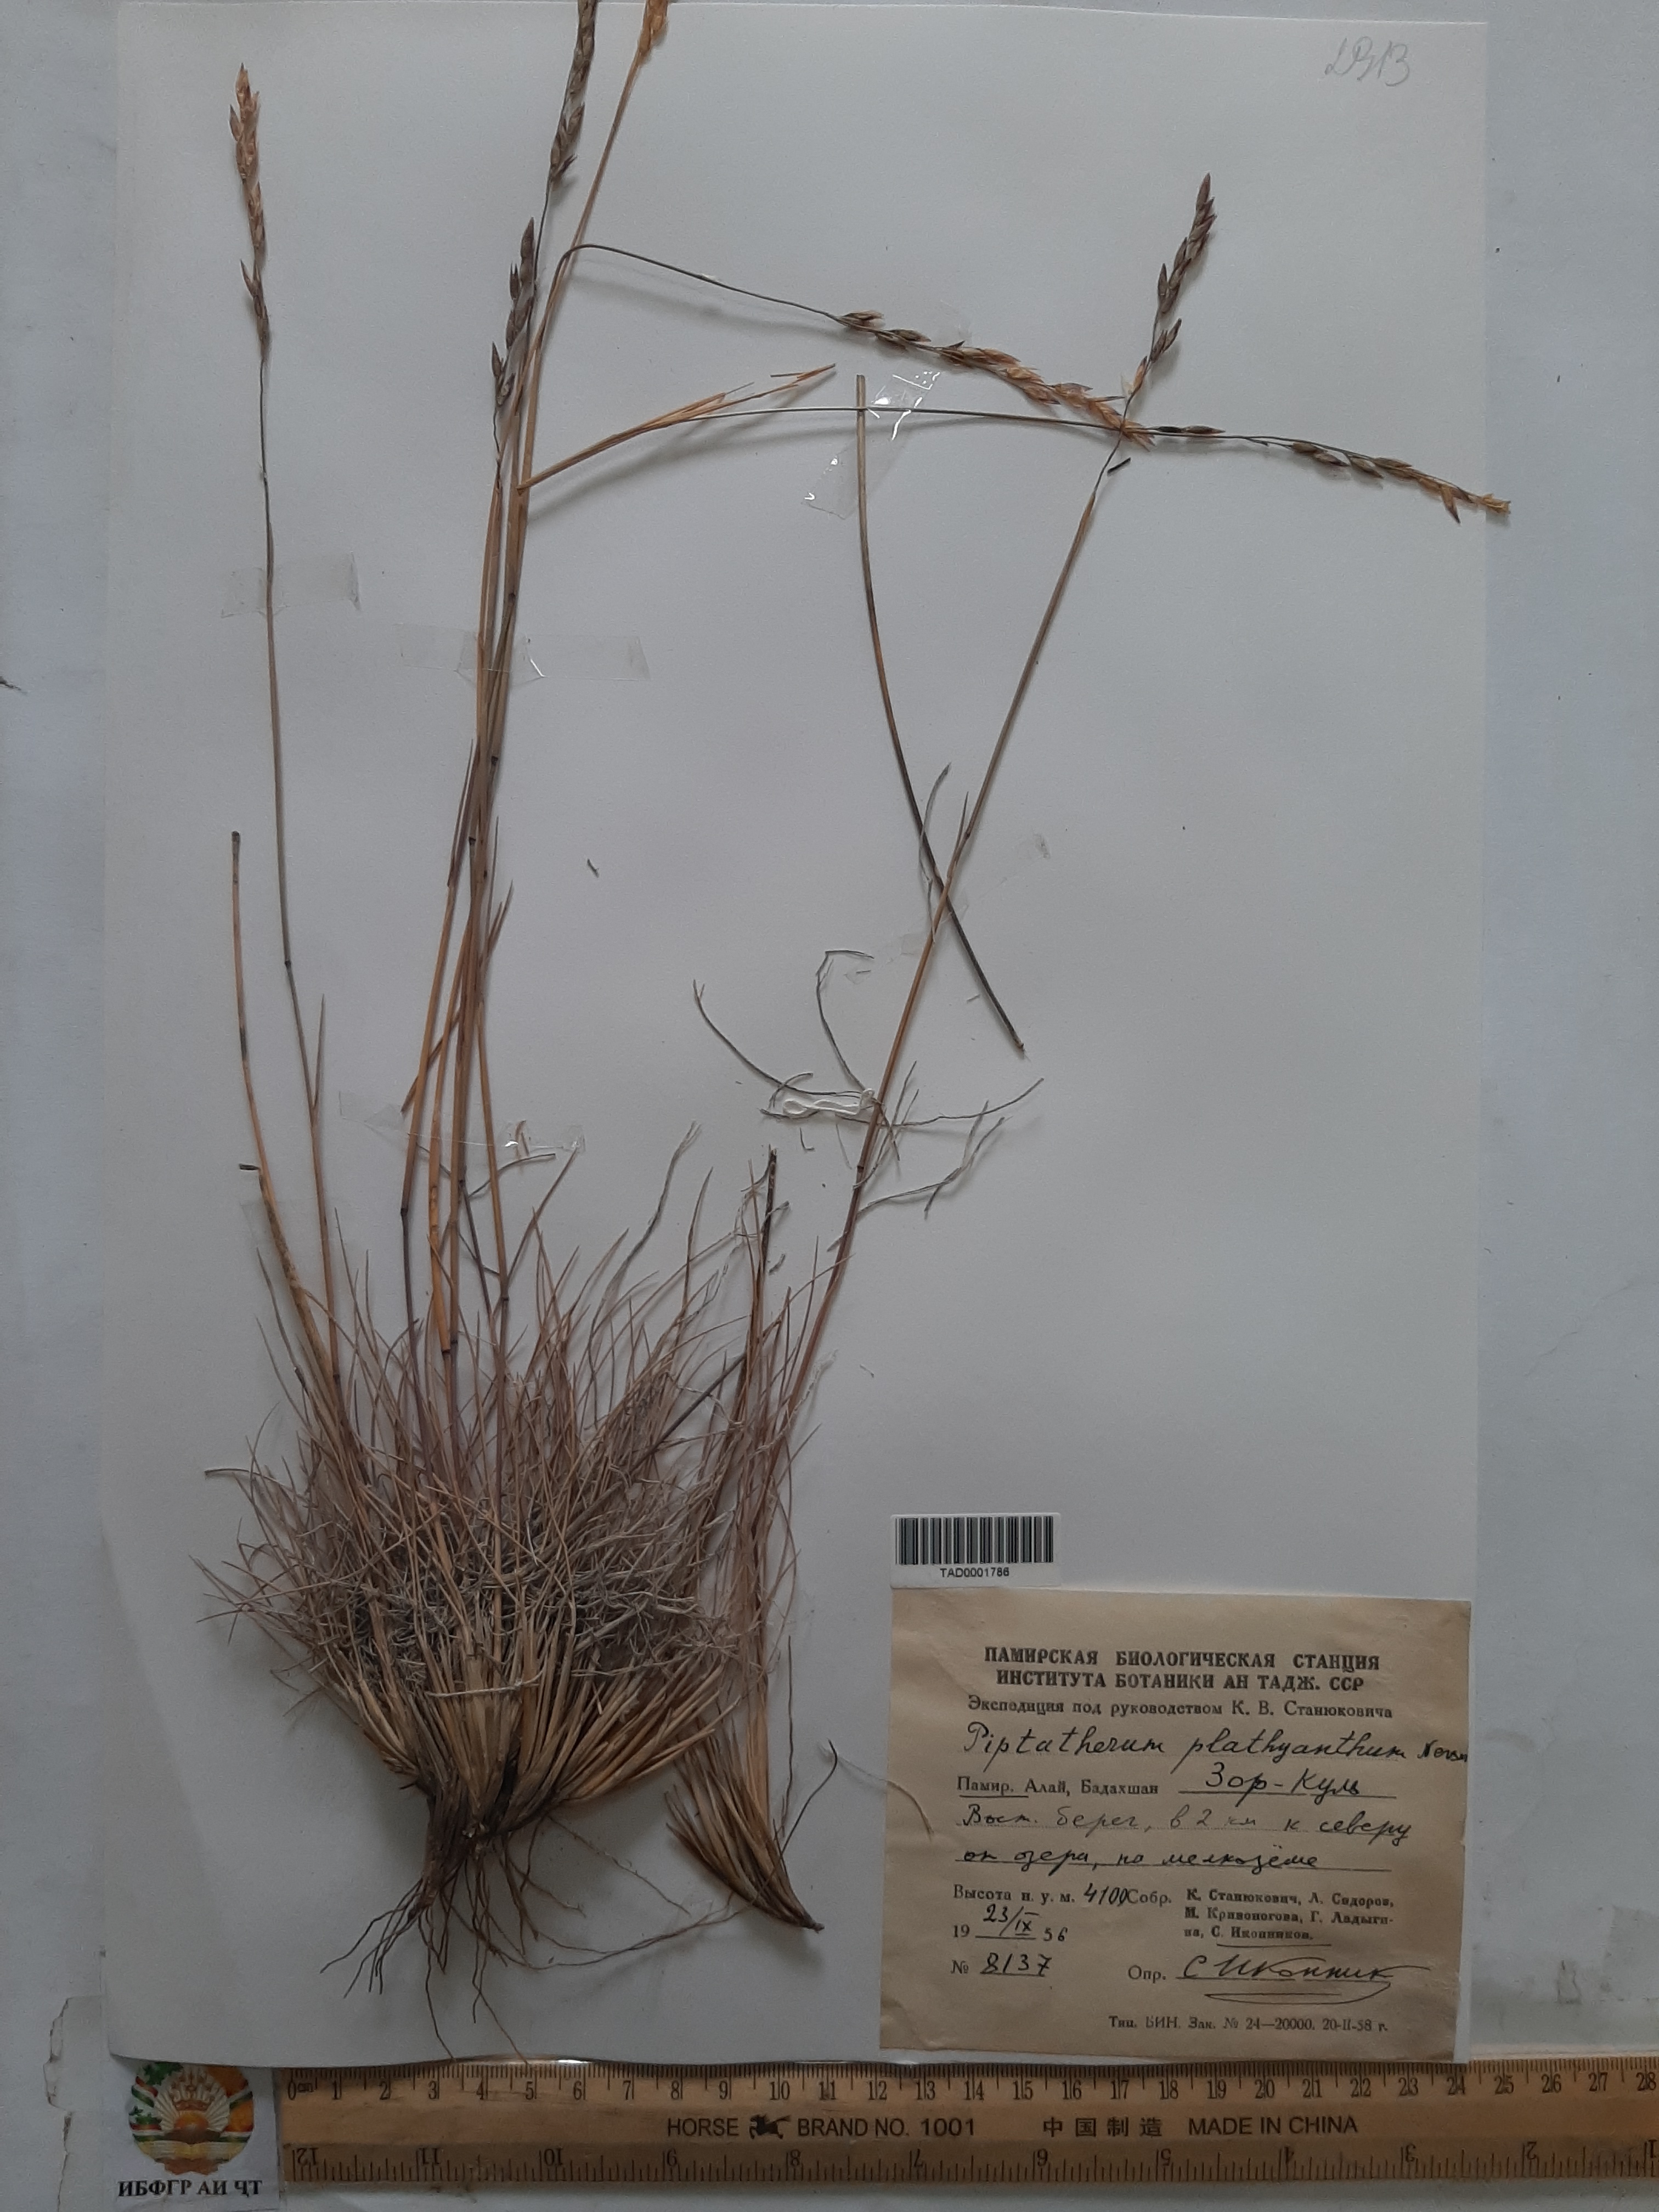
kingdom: Plantae
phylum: Tracheophyta
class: Liliopsida
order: Poales
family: Poaceae
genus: Piptatherum
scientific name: Piptatherum platyanthum
